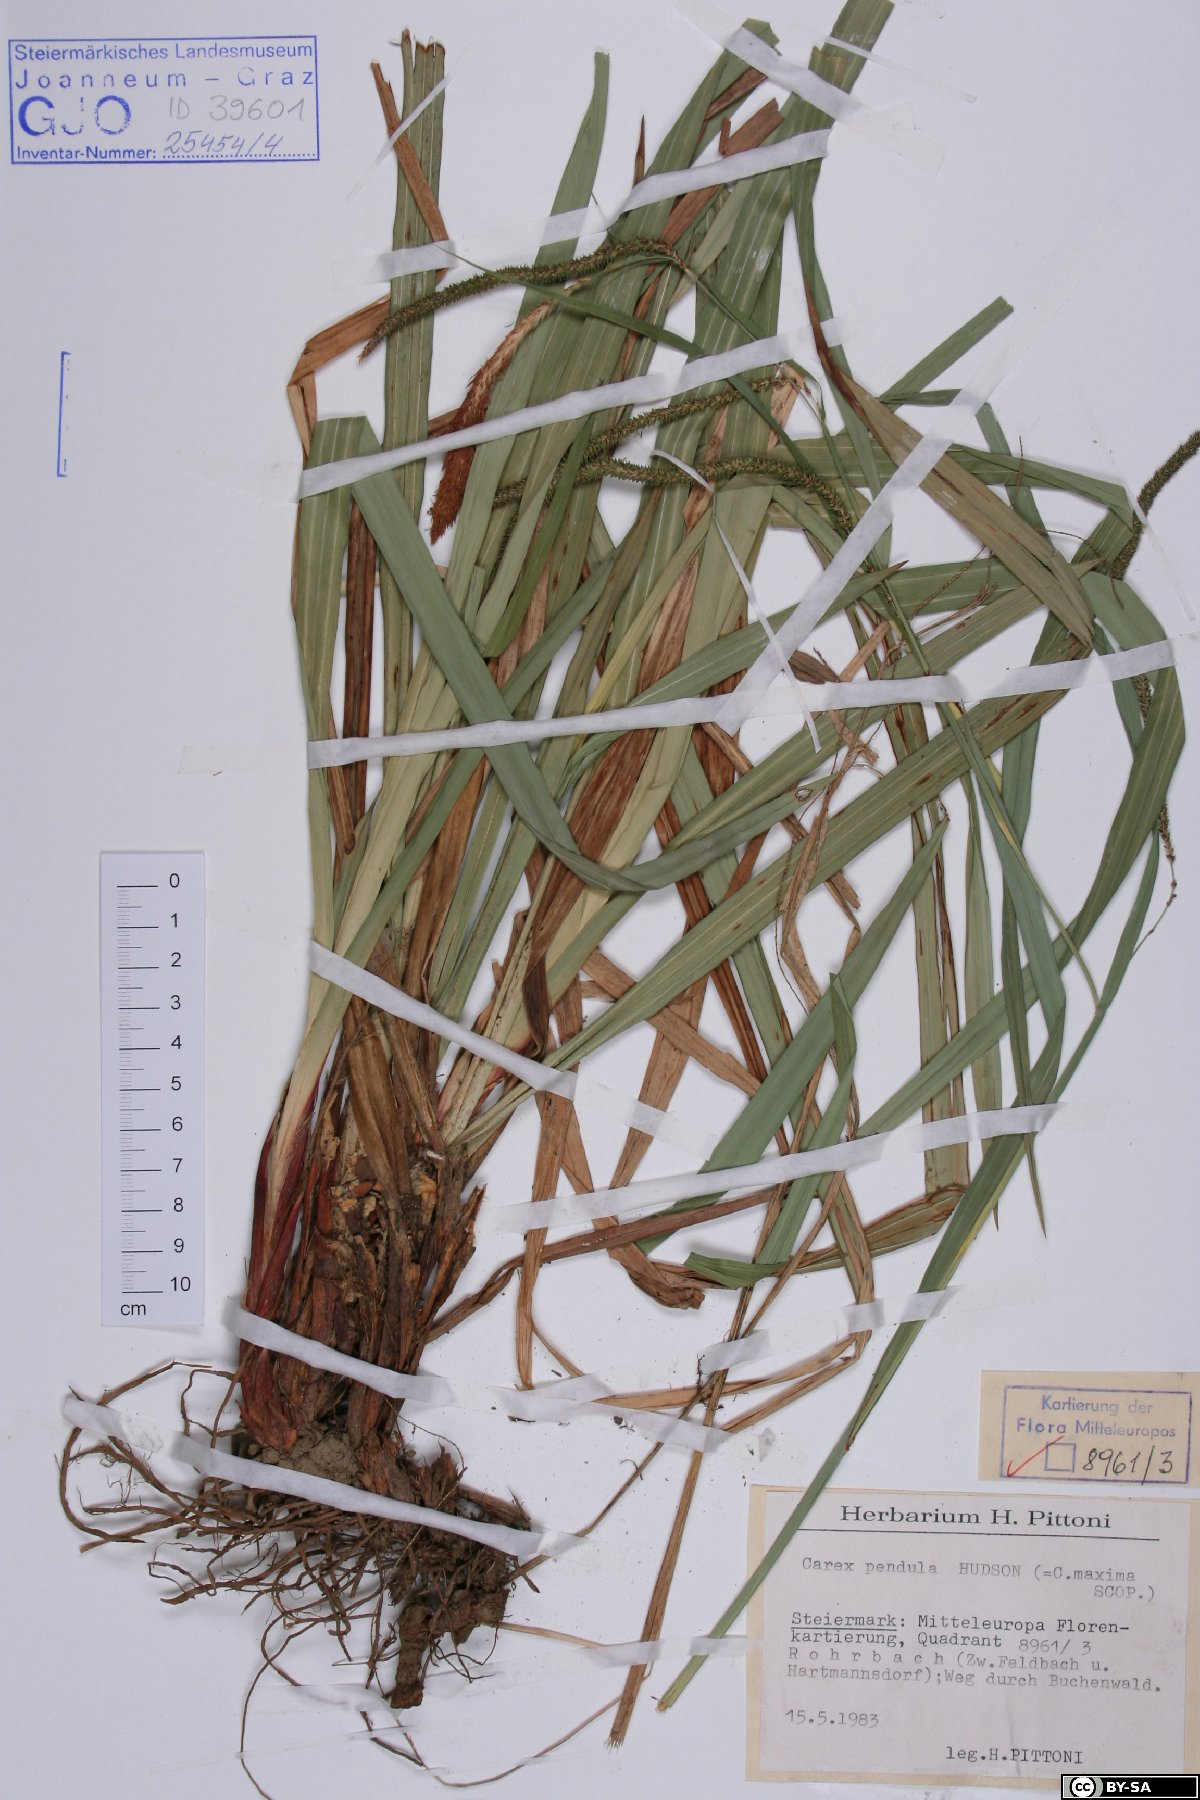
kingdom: Plantae
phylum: Tracheophyta
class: Liliopsida
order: Poales
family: Cyperaceae
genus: Carex
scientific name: Carex pendula
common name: Pendulous sedge
